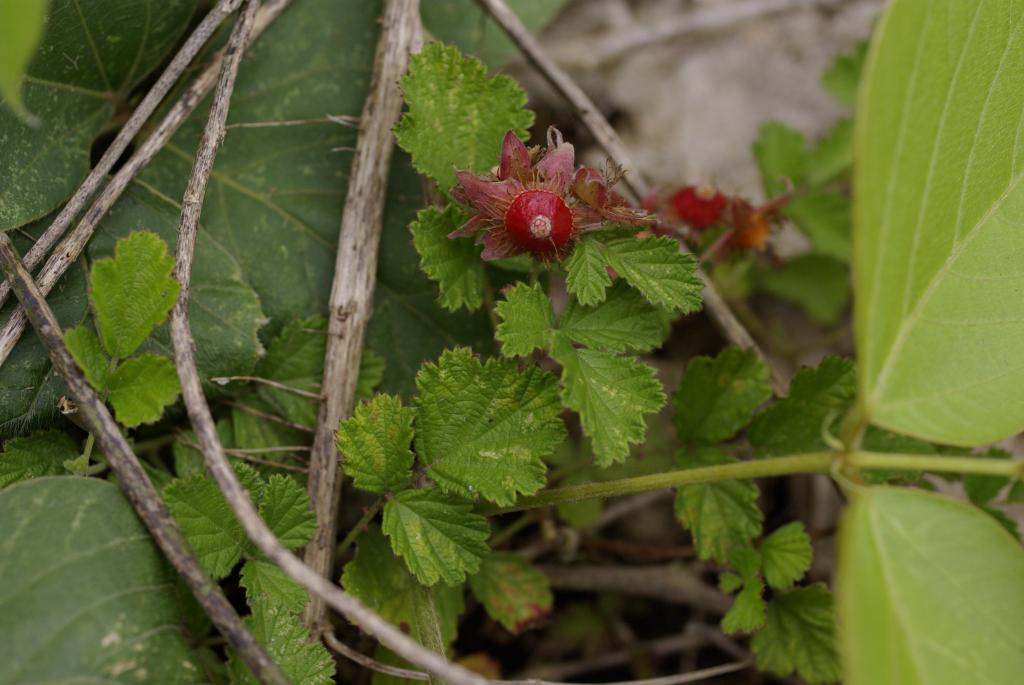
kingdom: Plantae
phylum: Tracheophyta
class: Magnoliopsida
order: Rosales
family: Rosaceae
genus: Rubus
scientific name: Rubus parvifolius
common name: Threeleaf blackberry
